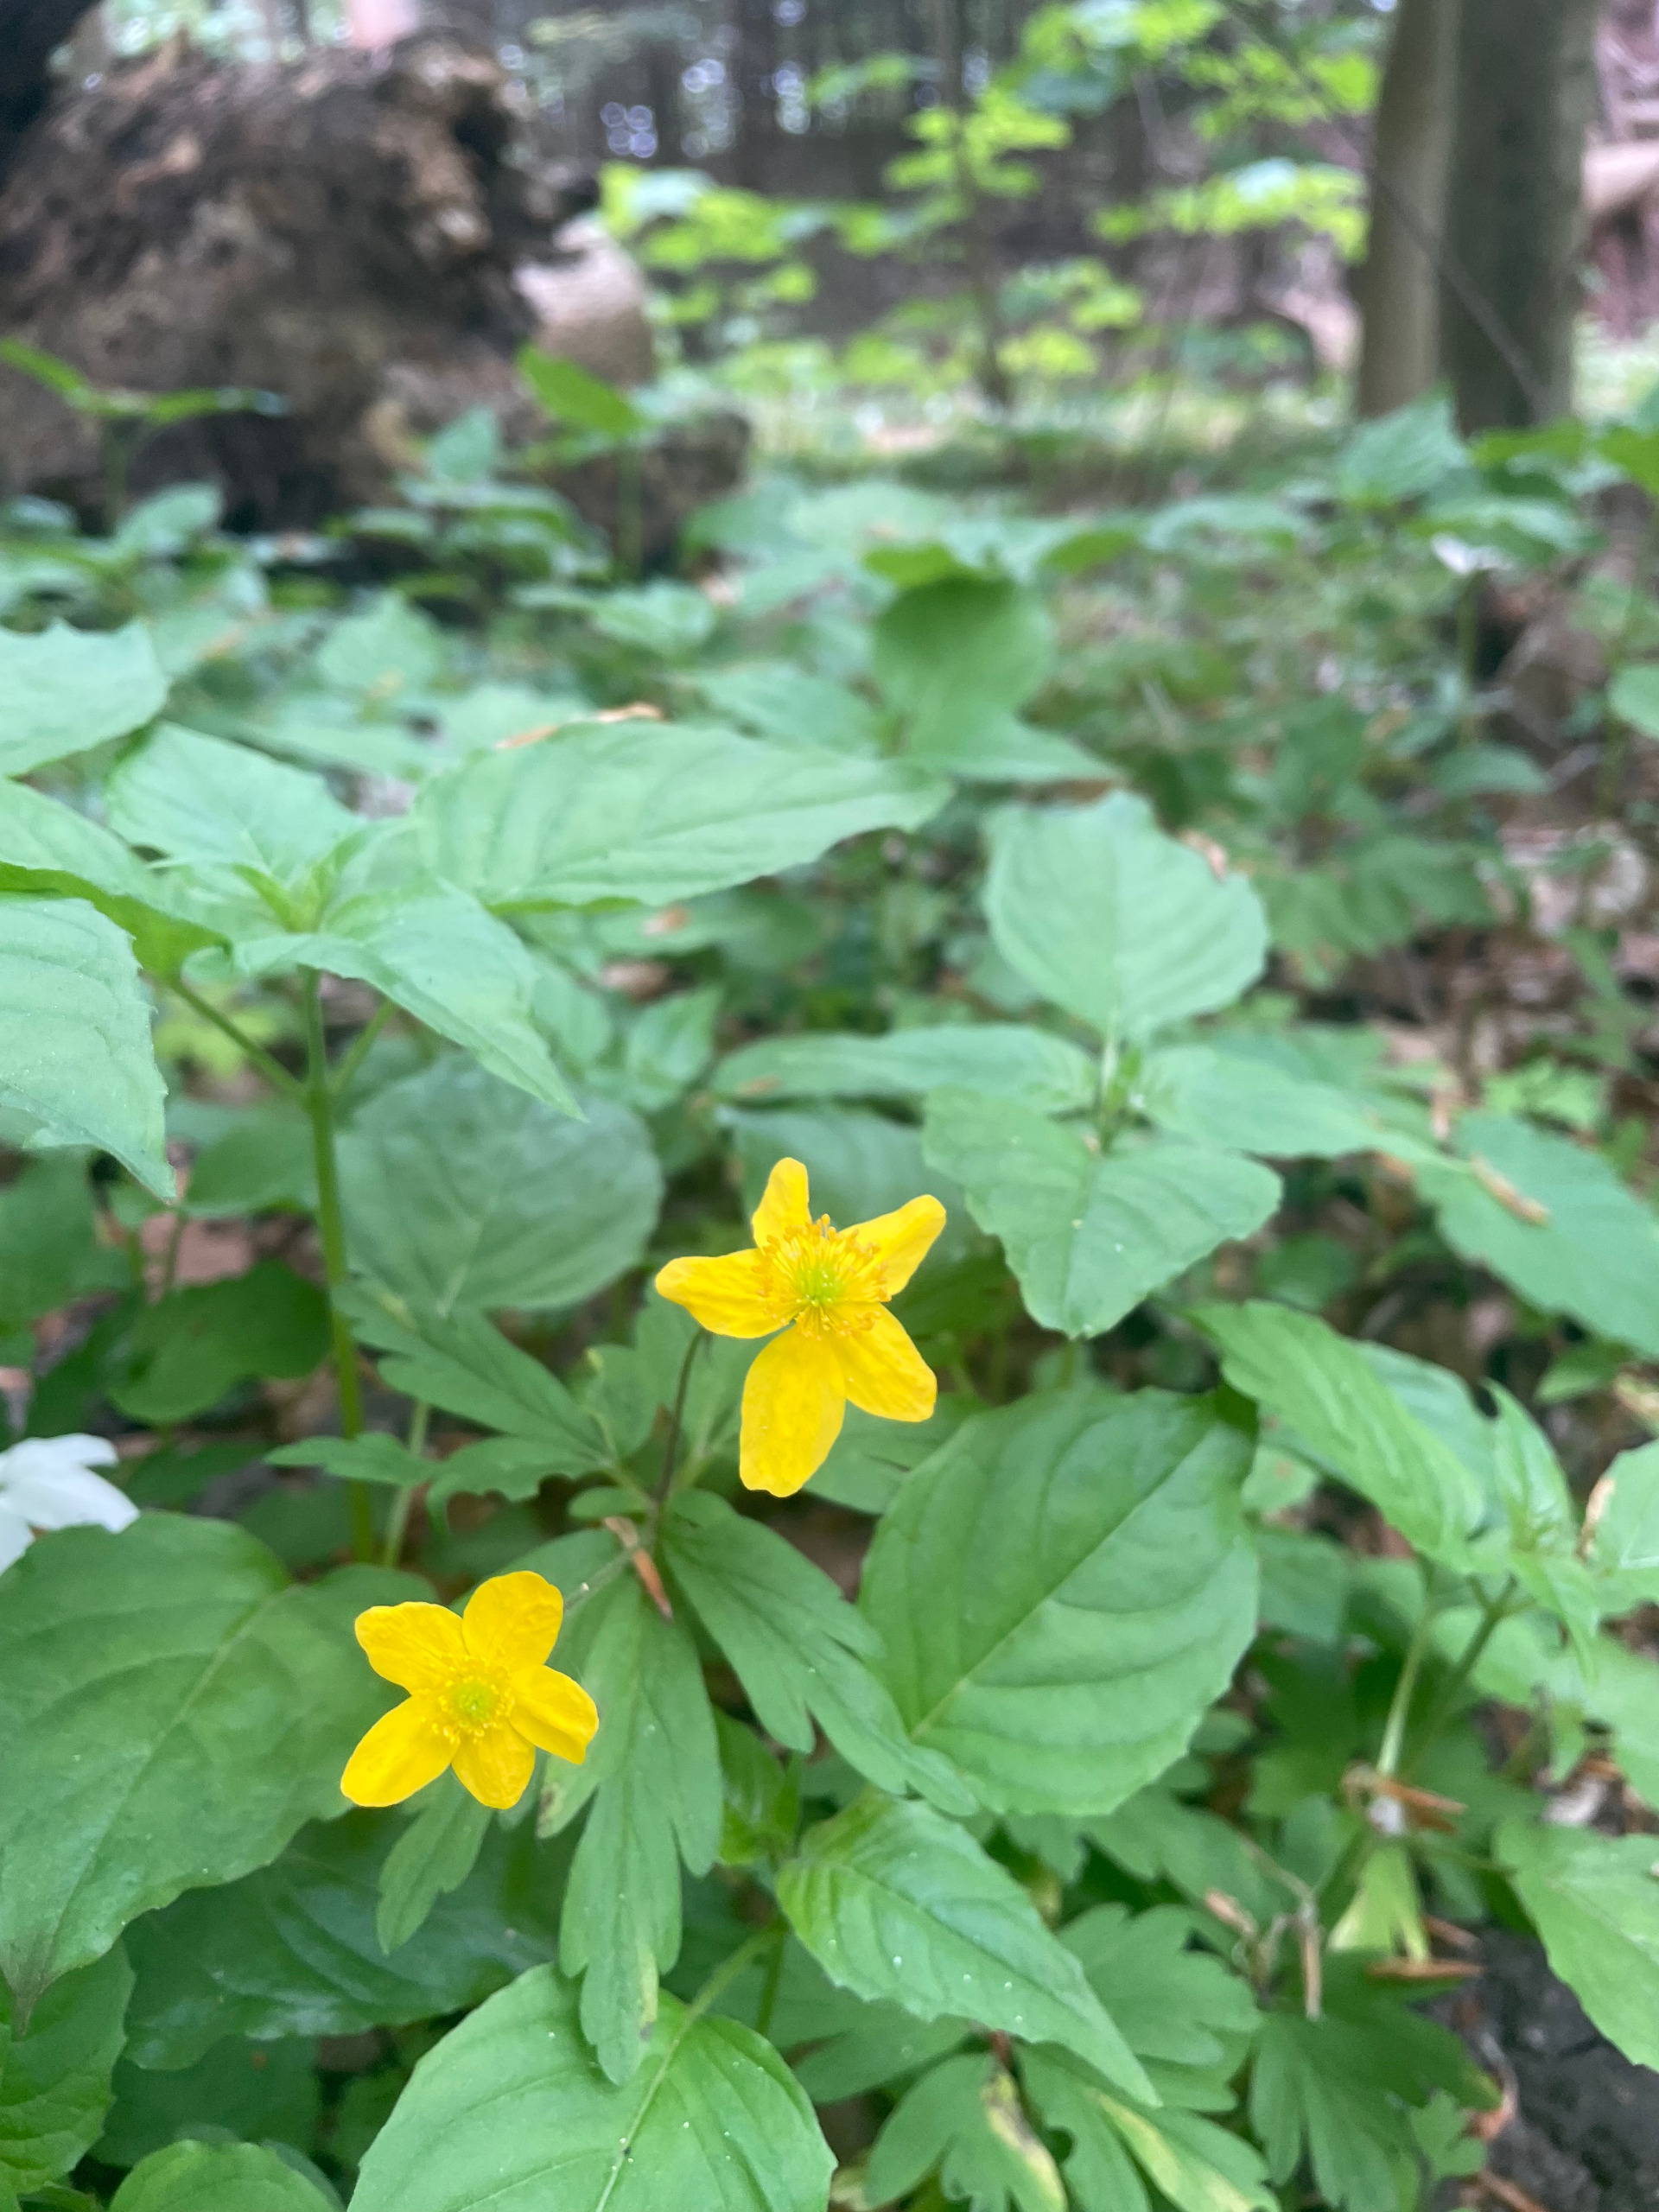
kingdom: Plantae
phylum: Tracheophyta
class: Magnoliopsida
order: Ranunculales
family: Ranunculaceae
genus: Anemone
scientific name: Anemone ranunculoides
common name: Gul anemone
